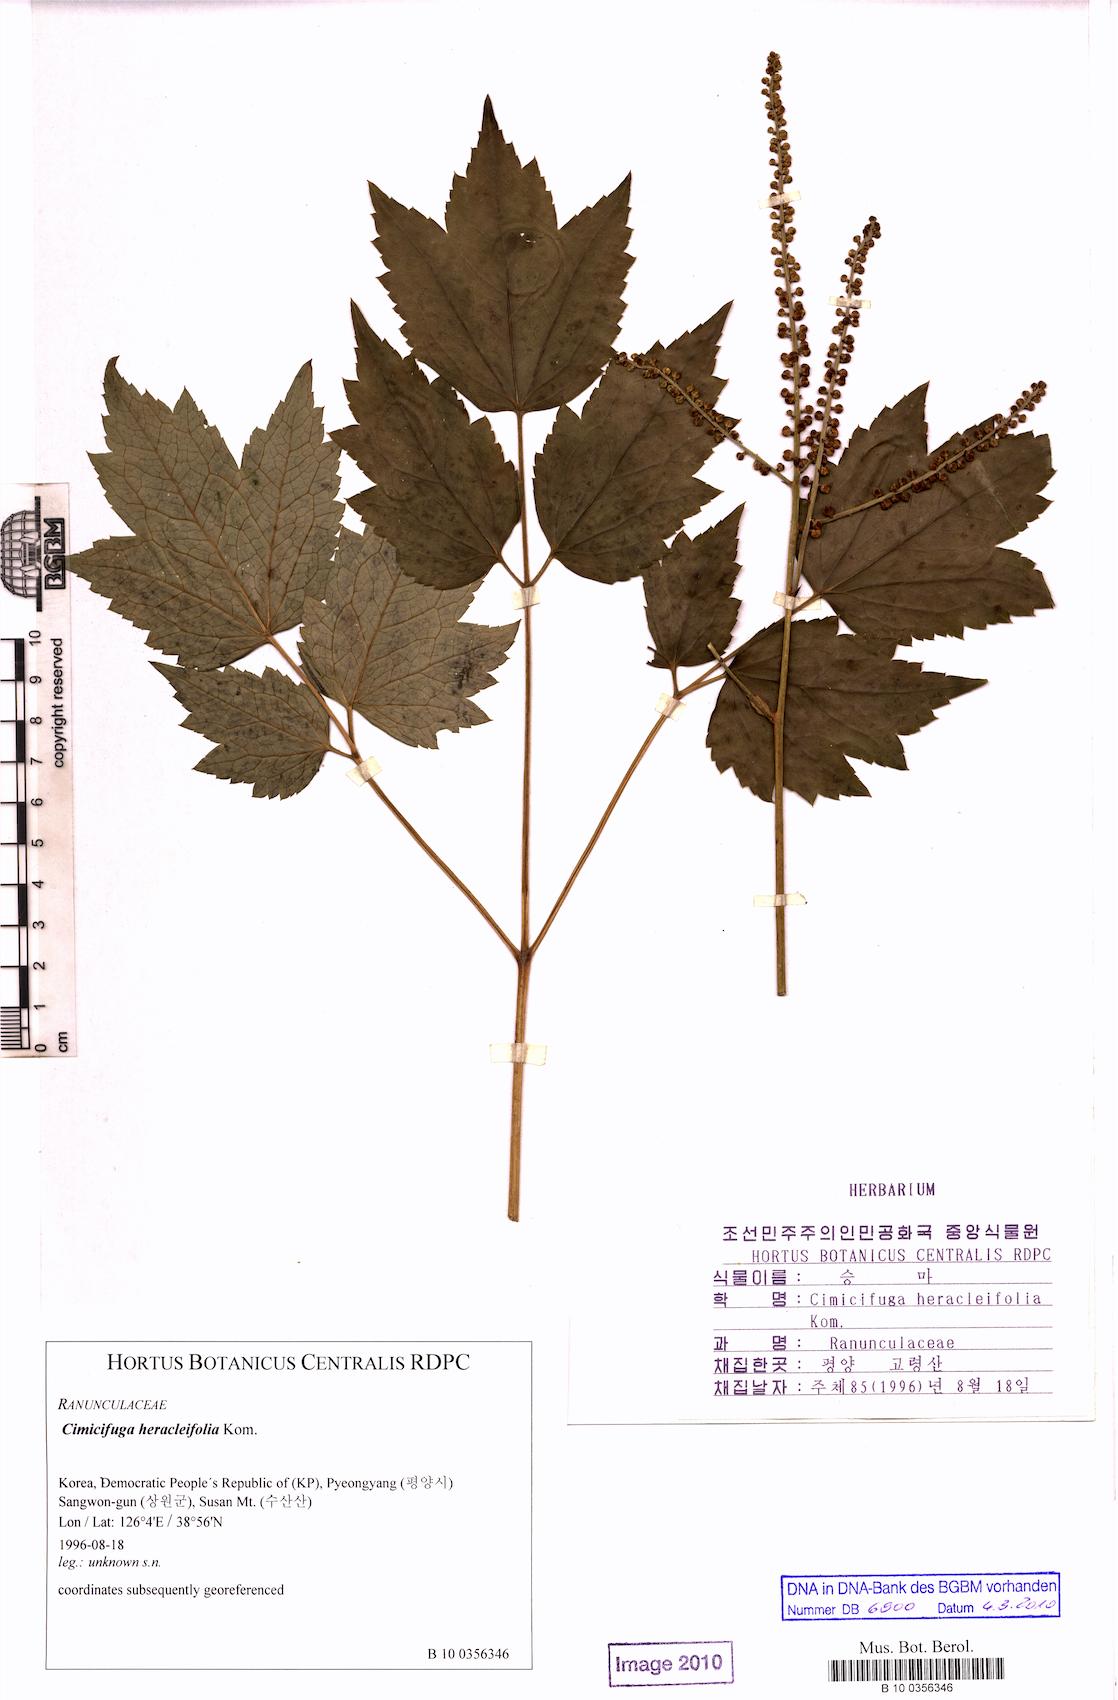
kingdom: Plantae
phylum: Tracheophyta
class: Magnoliopsida
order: Ranunculales
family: Ranunculaceae
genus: Actaea
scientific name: Actaea heracleifolia
